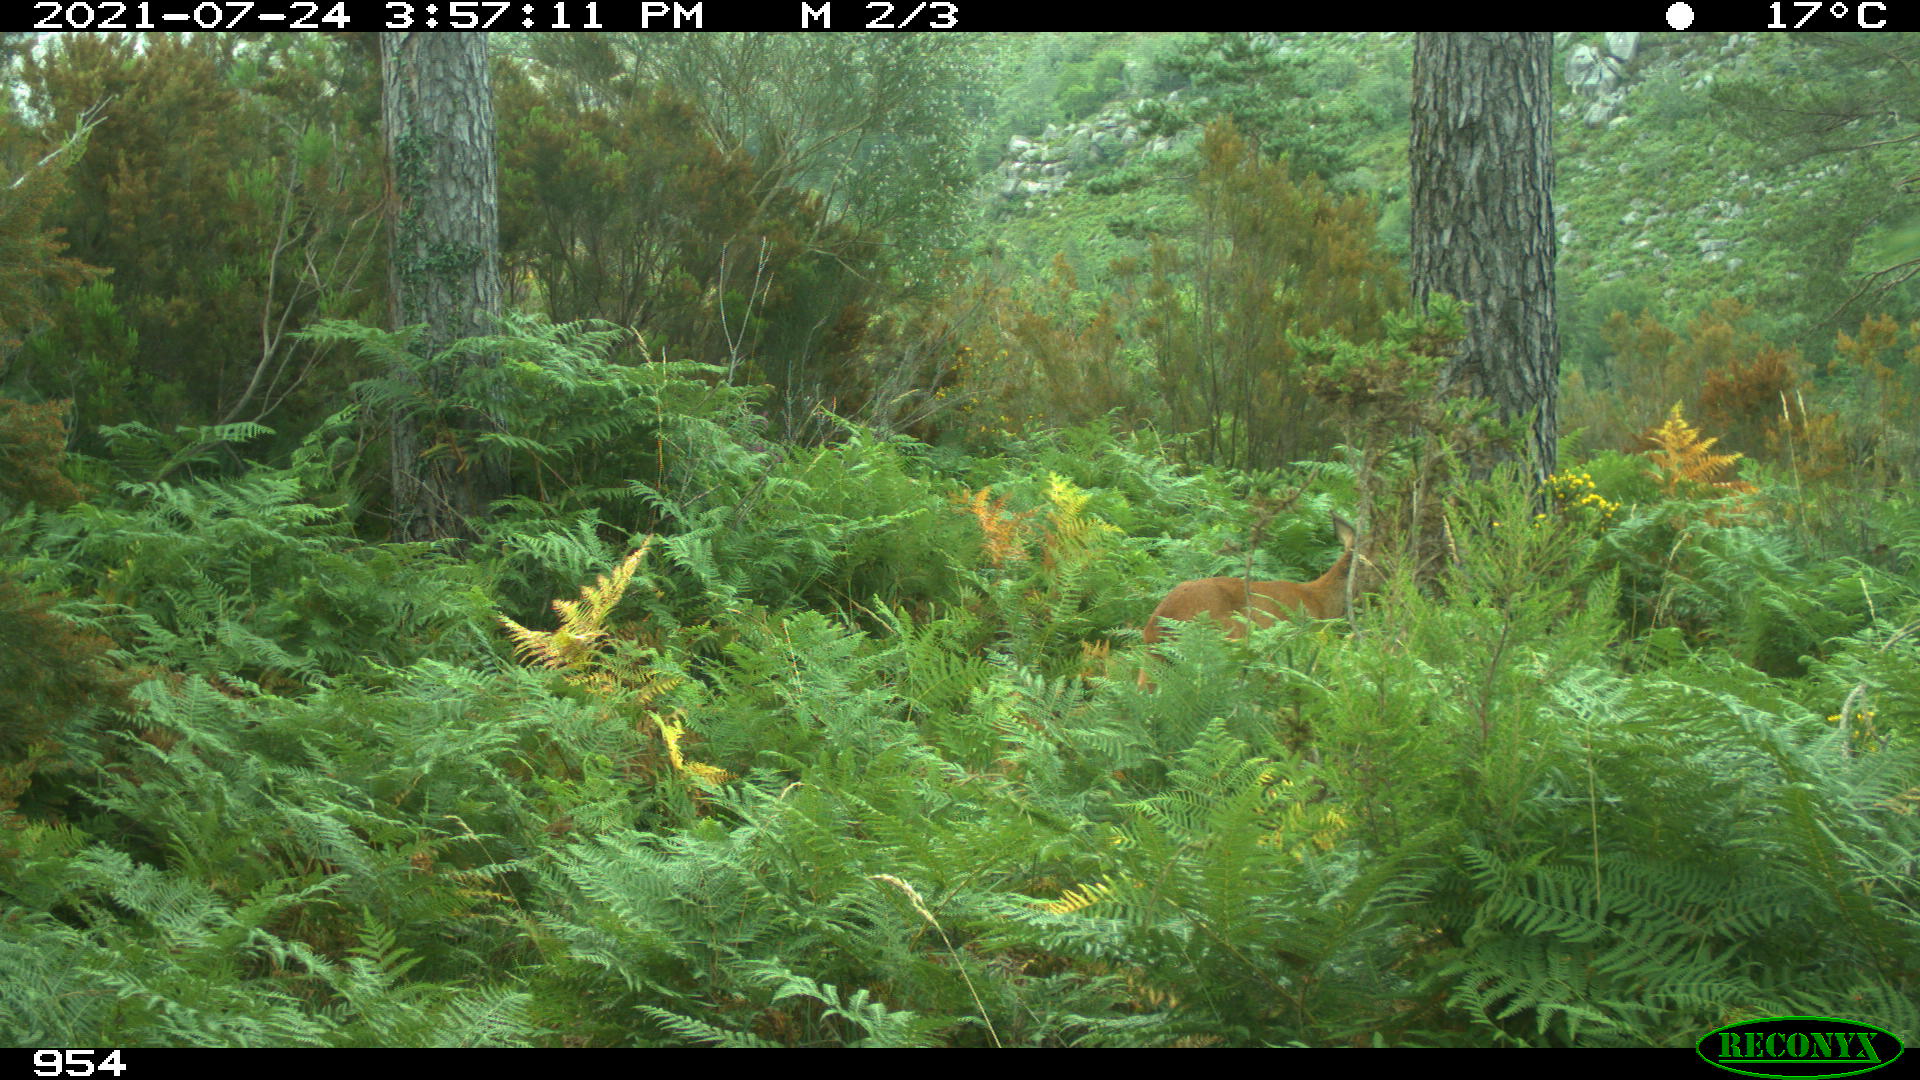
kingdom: Animalia
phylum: Chordata
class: Mammalia
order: Artiodactyla
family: Cervidae
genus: Capreolus
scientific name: Capreolus capreolus
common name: Western roe deer
